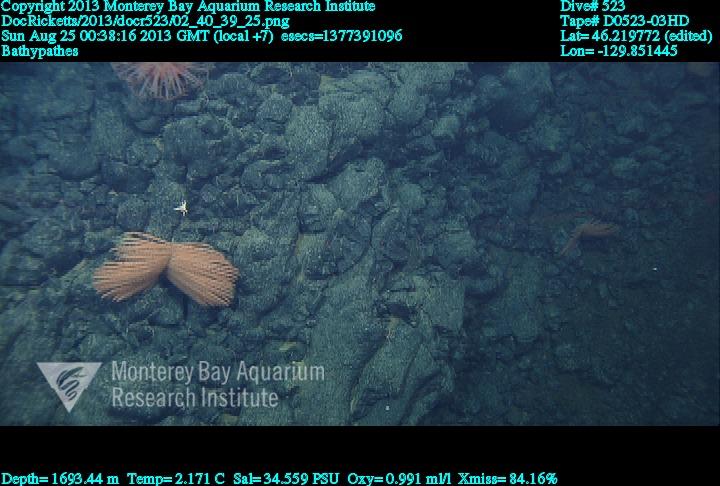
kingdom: Animalia
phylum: Cnidaria
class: Anthozoa
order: Antipatharia
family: Schizopathidae
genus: Bathypathes
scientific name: Bathypathes
